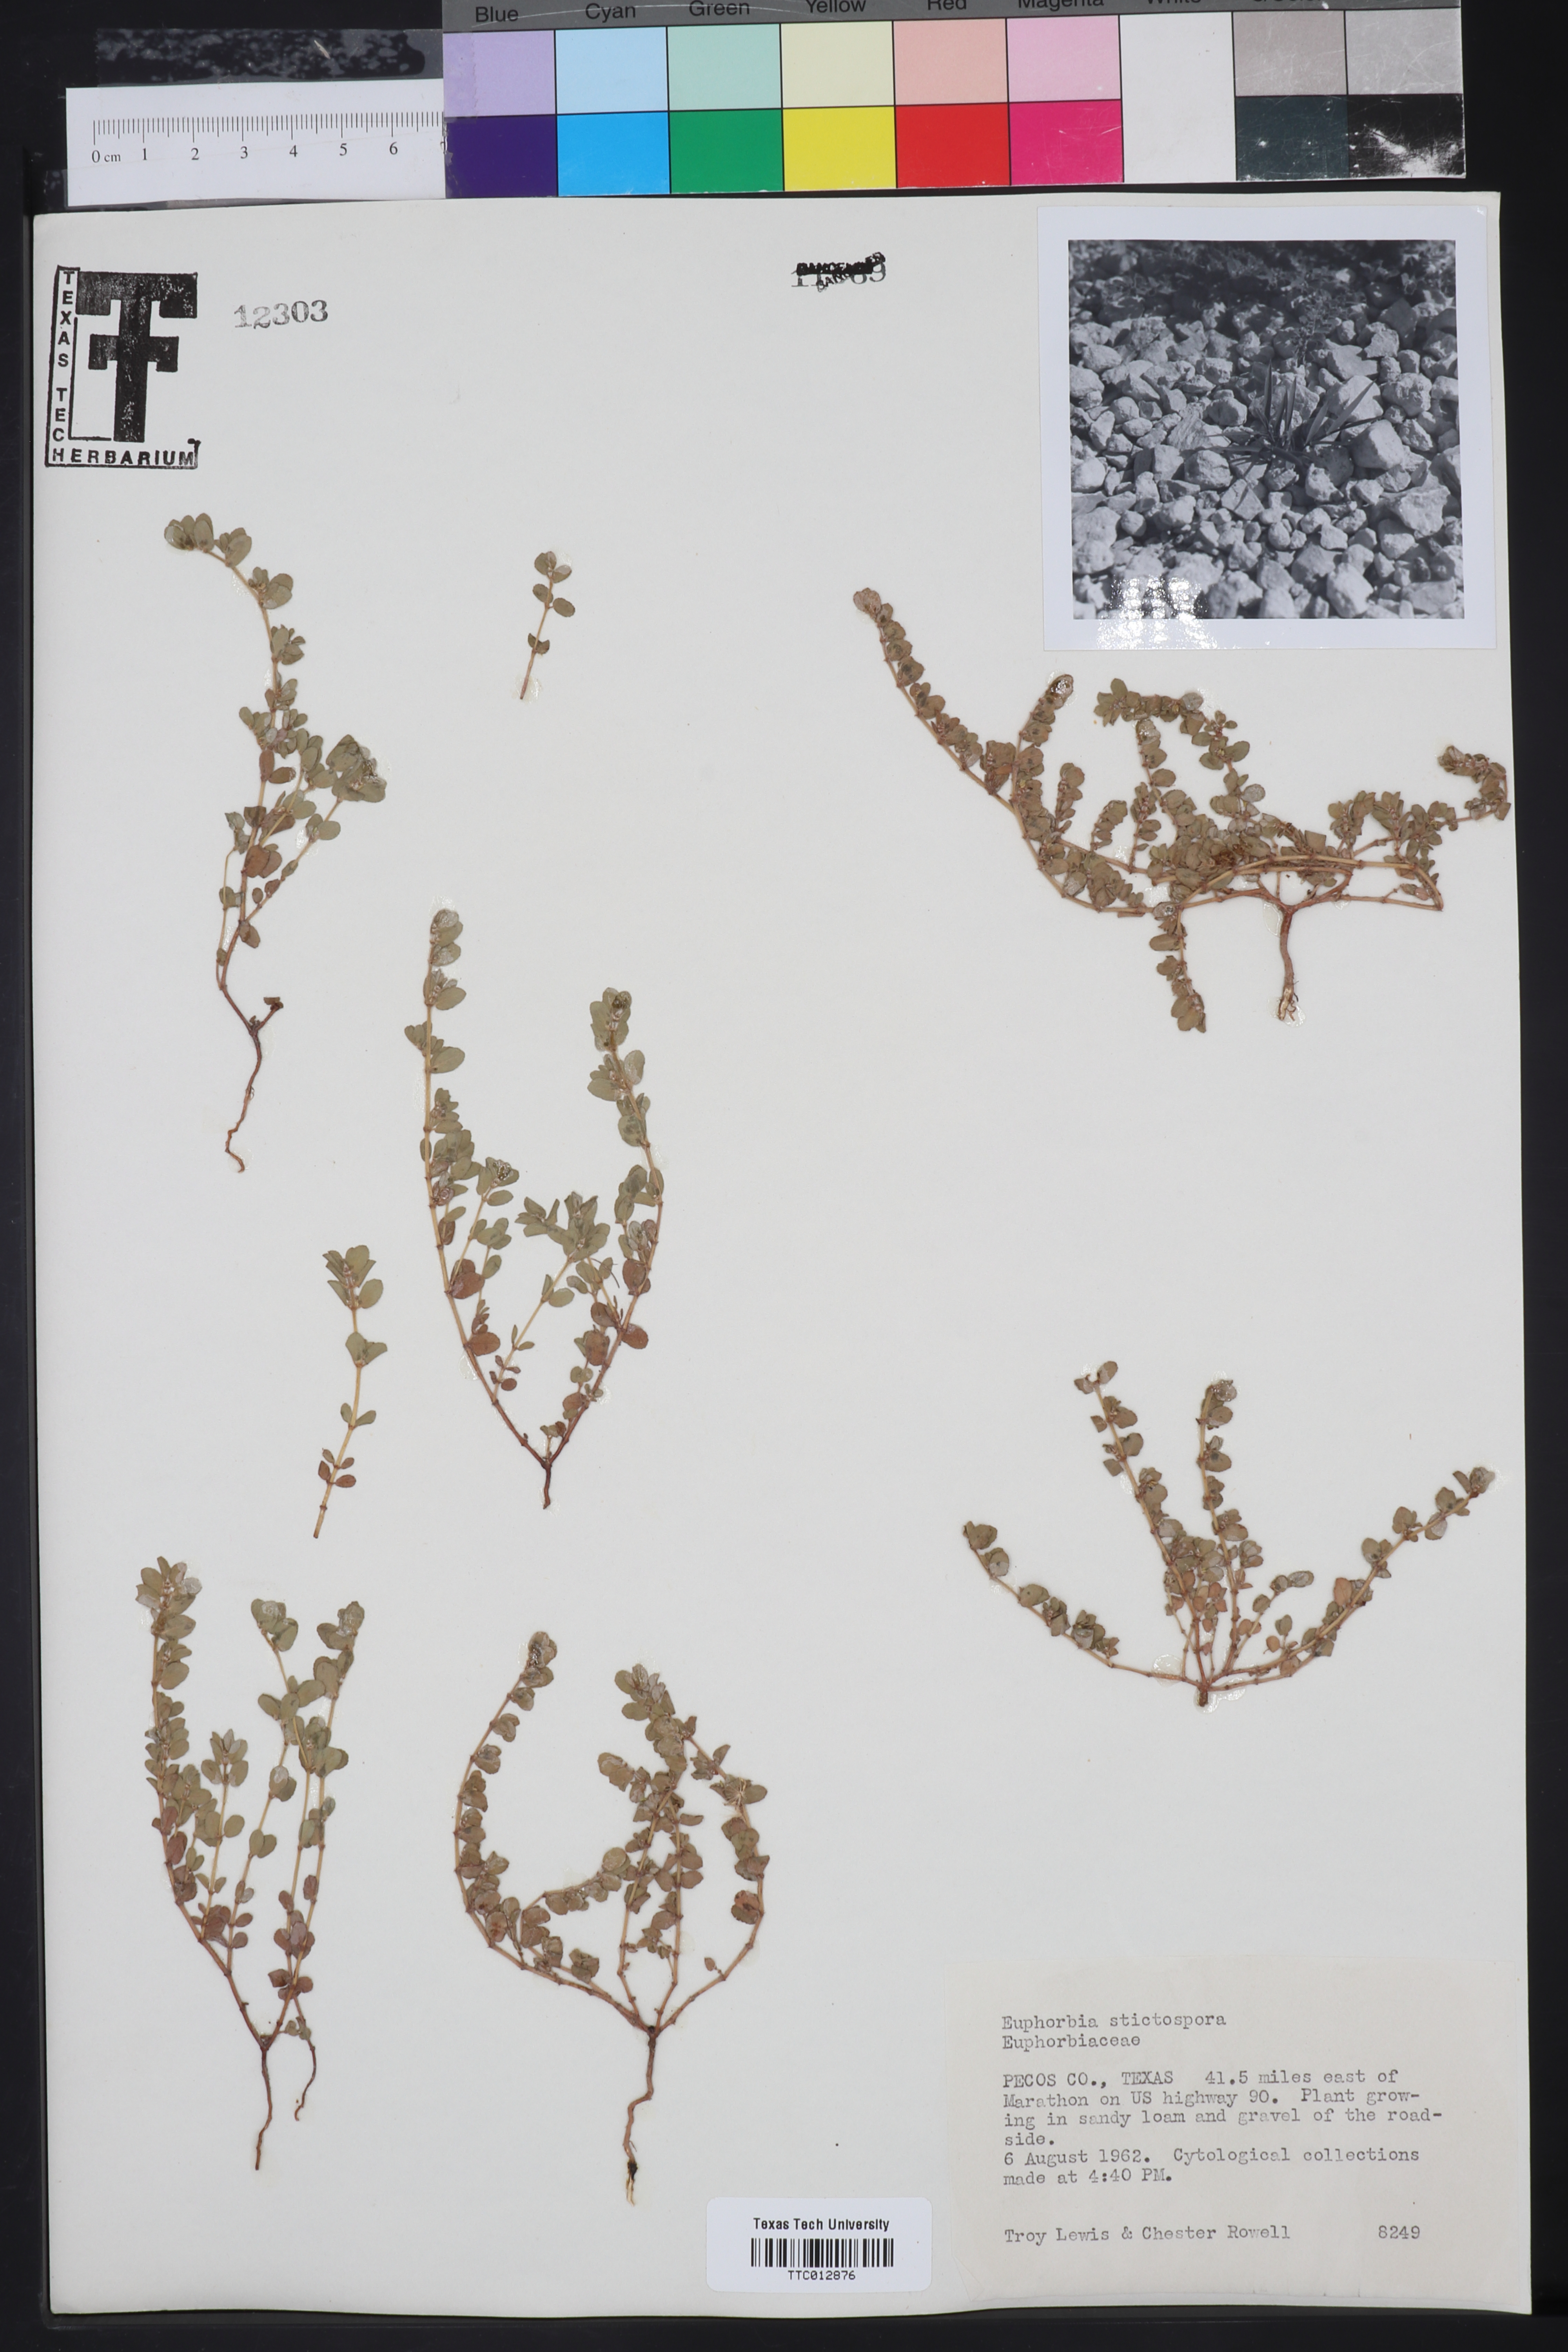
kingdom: Plantae
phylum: Tracheophyta
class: Magnoliopsida
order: Malpighiales
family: Euphorbiaceae
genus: Euphorbia
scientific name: Euphorbia
